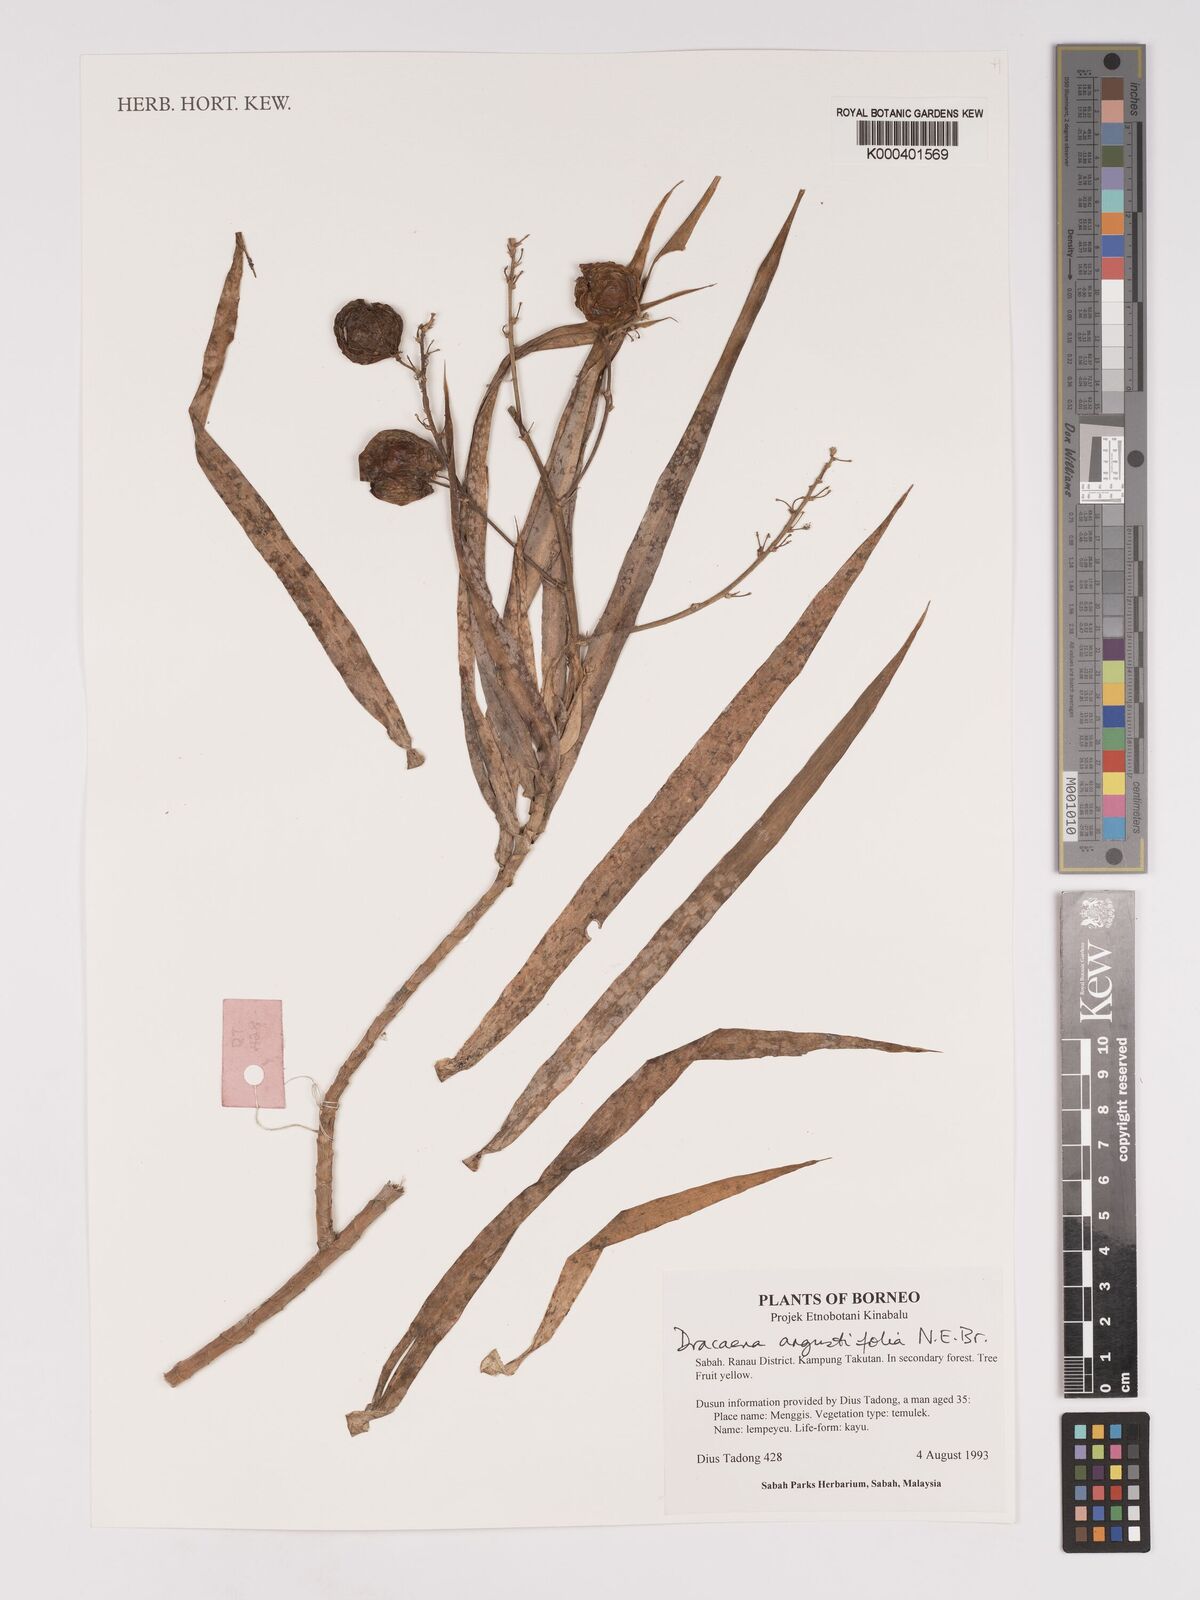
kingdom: Plantae
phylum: Tracheophyta
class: Liliopsida
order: Asparagales
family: Asparagaceae
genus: Dracaena
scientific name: Dracaena angustifolia
